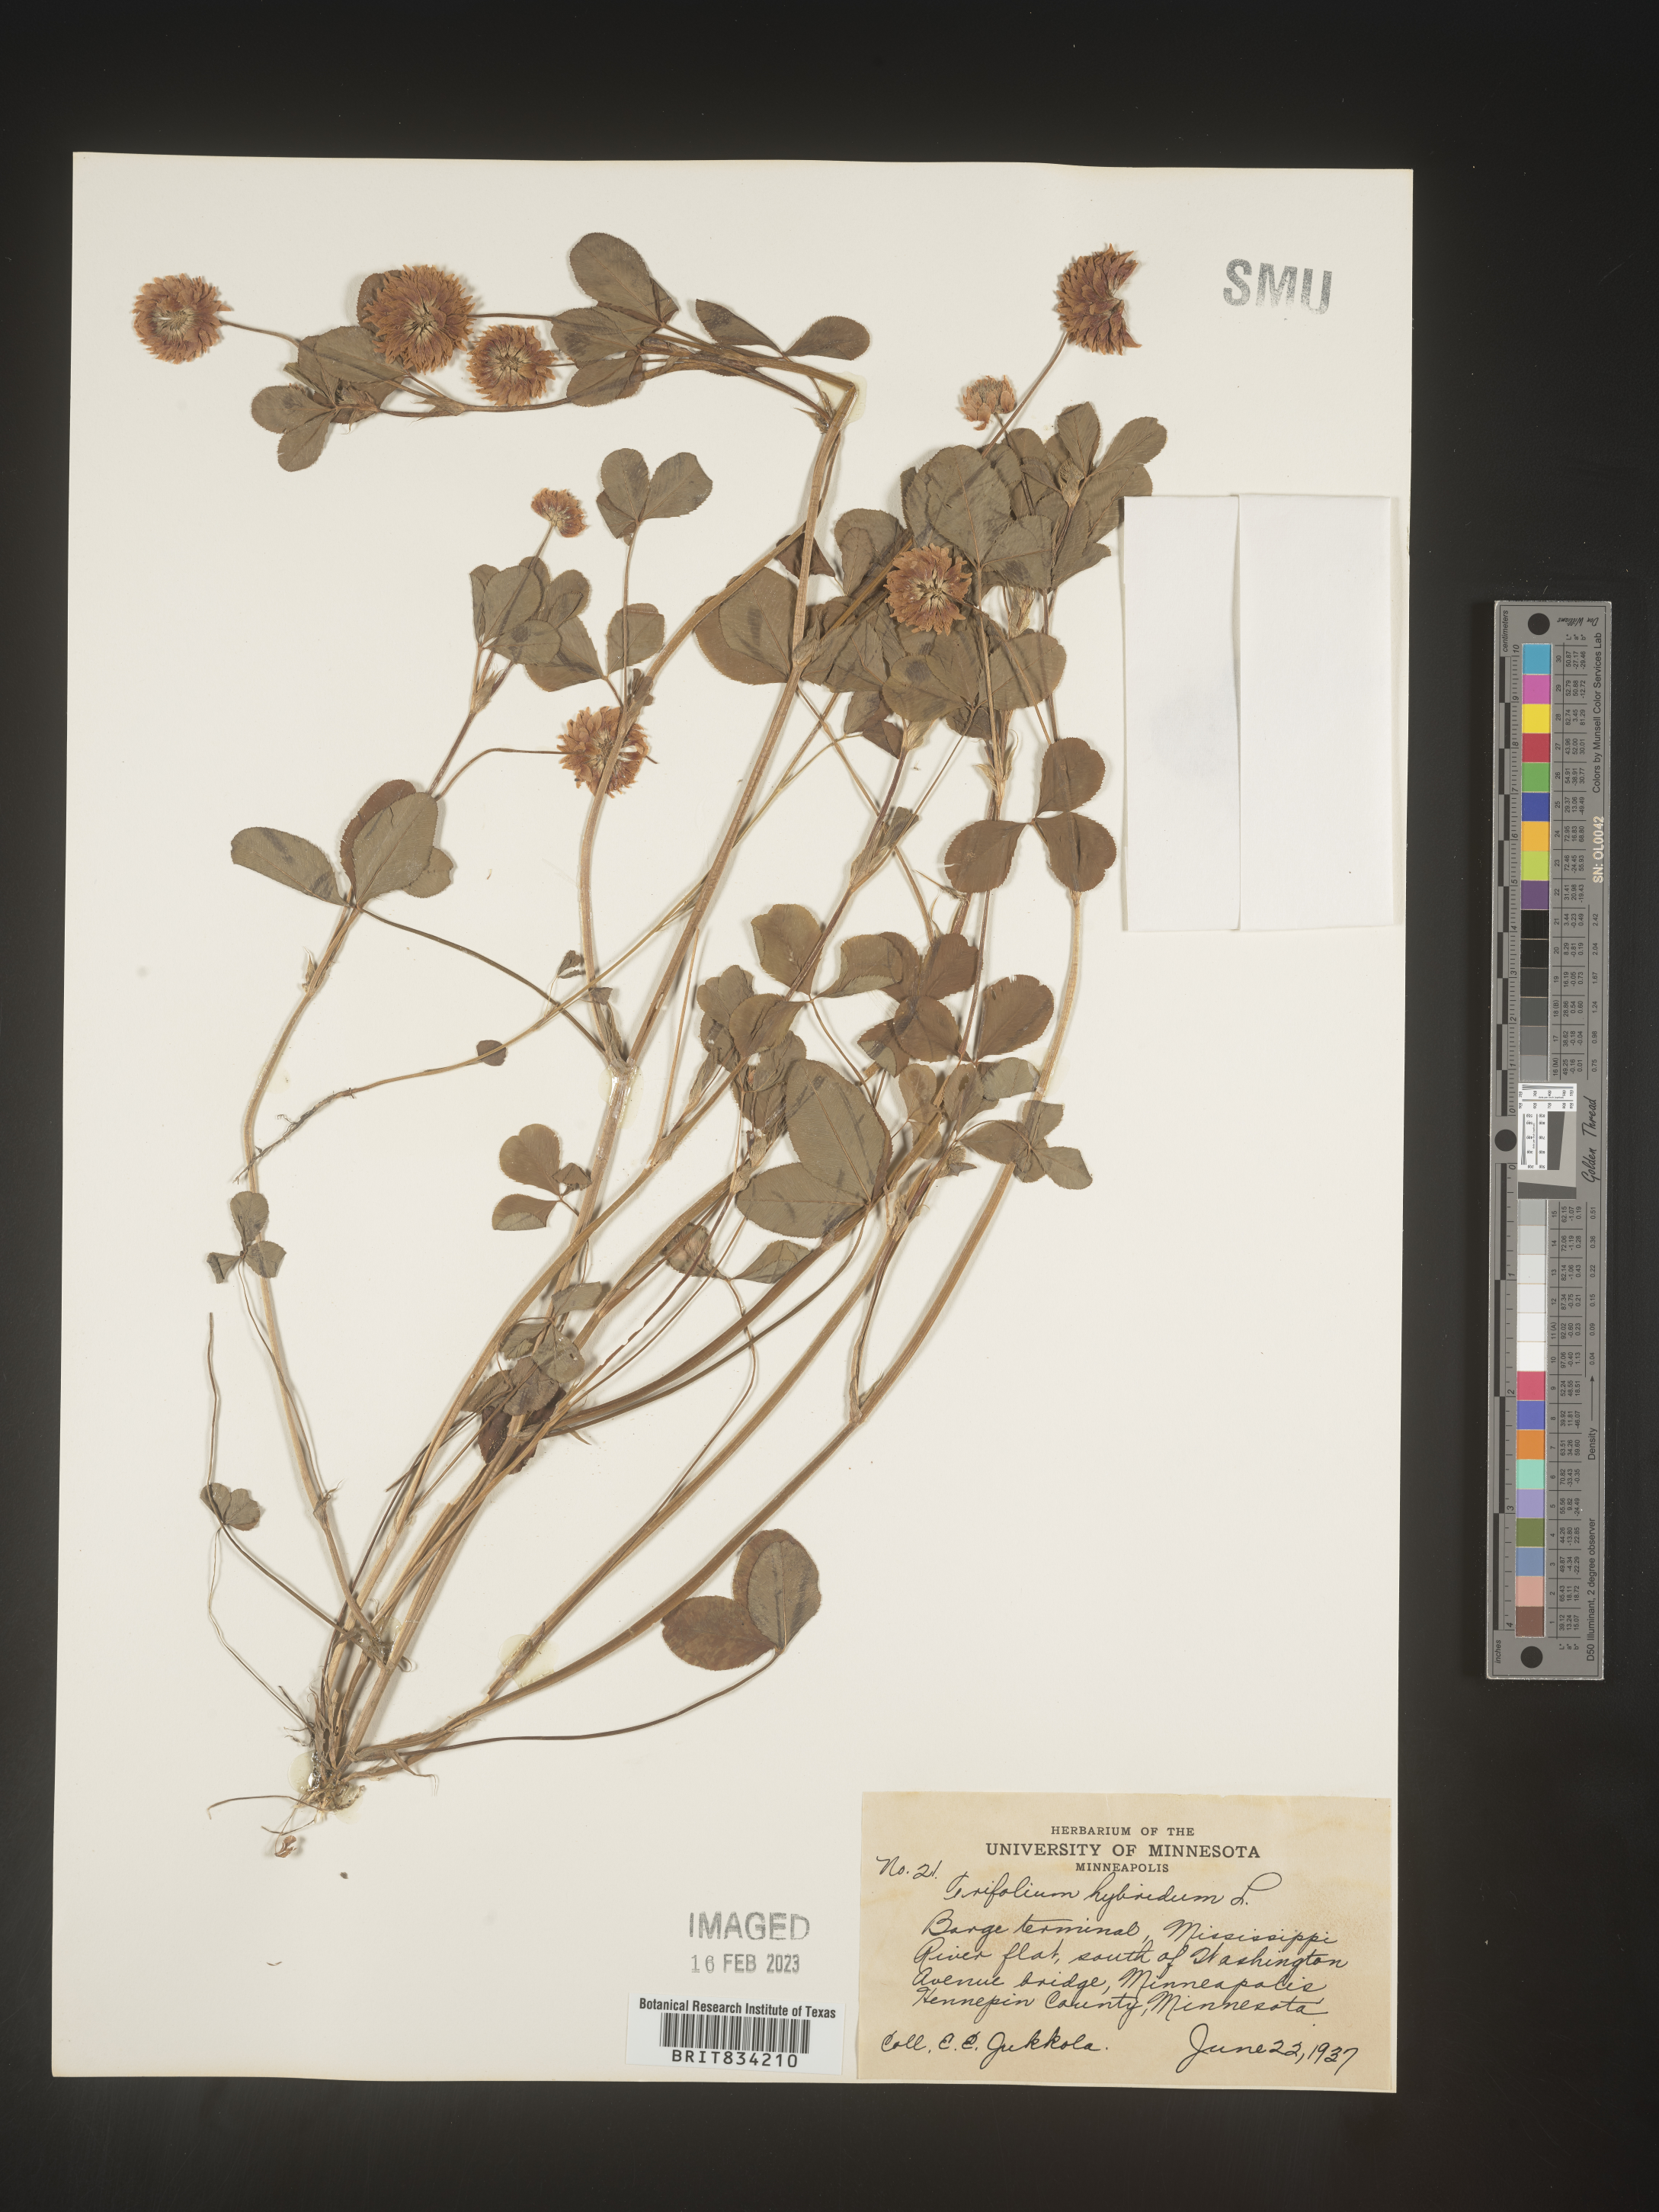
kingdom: Plantae
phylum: Tracheophyta
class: Magnoliopsida
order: Fabales
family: Fabaceae
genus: Trifolium
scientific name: Trifolium hybridum
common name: Alsike clover
